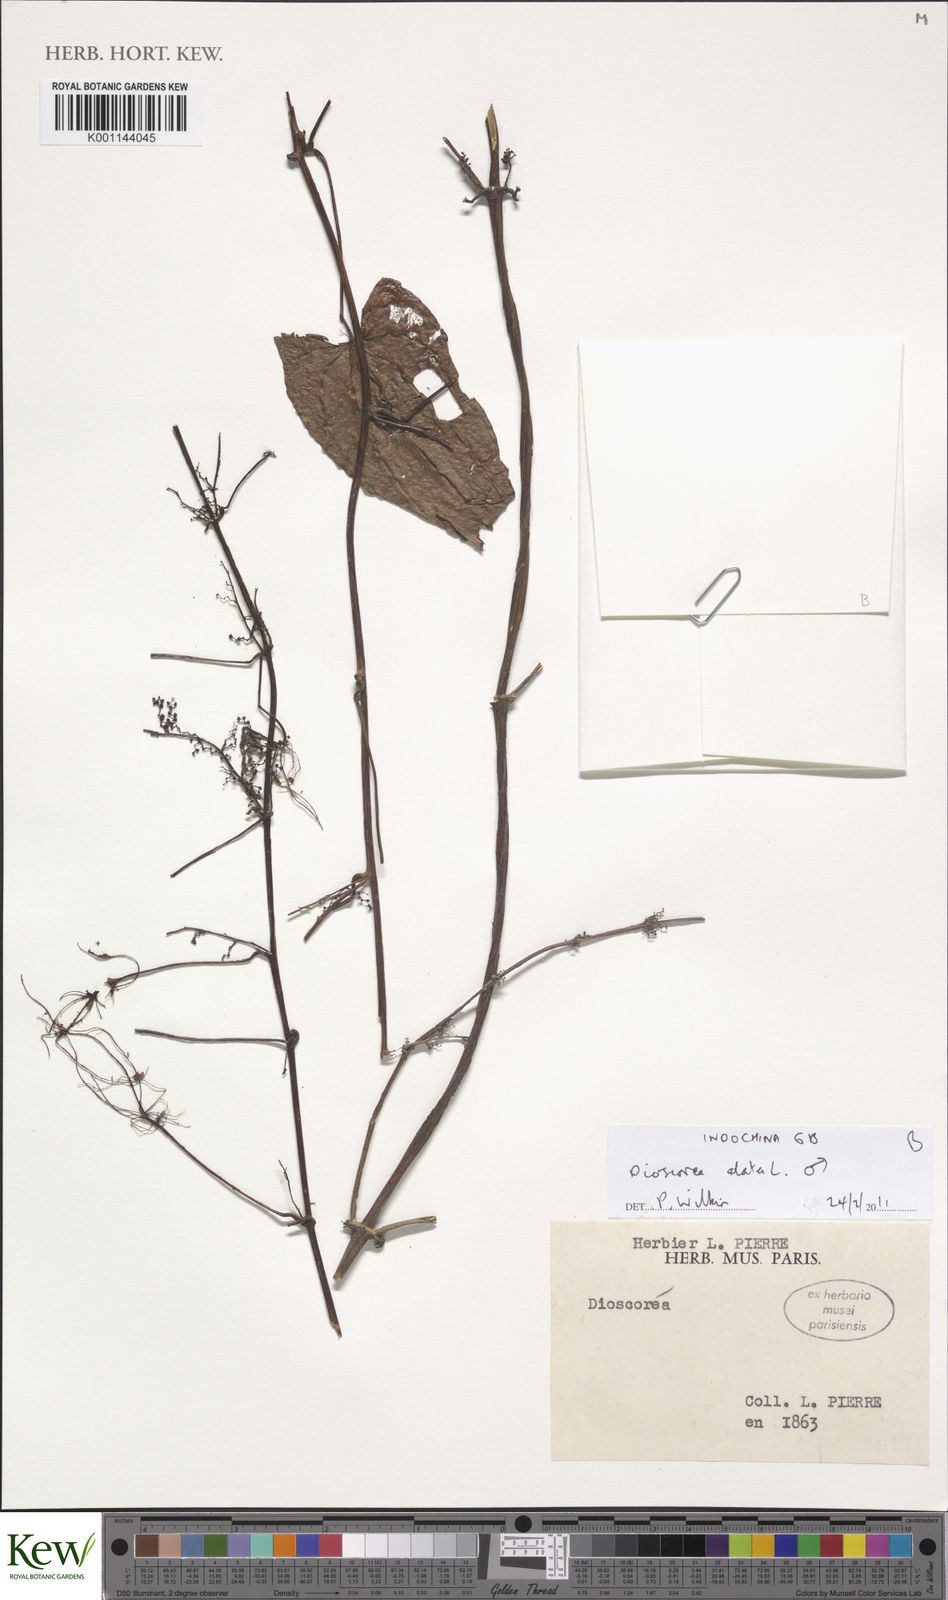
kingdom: Plantae
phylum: Tracheophyta
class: Liliopsida
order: Dioscoreales
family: Dioscoreaceae
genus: Dioscorea
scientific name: Dioscorea alata
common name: Water yam
